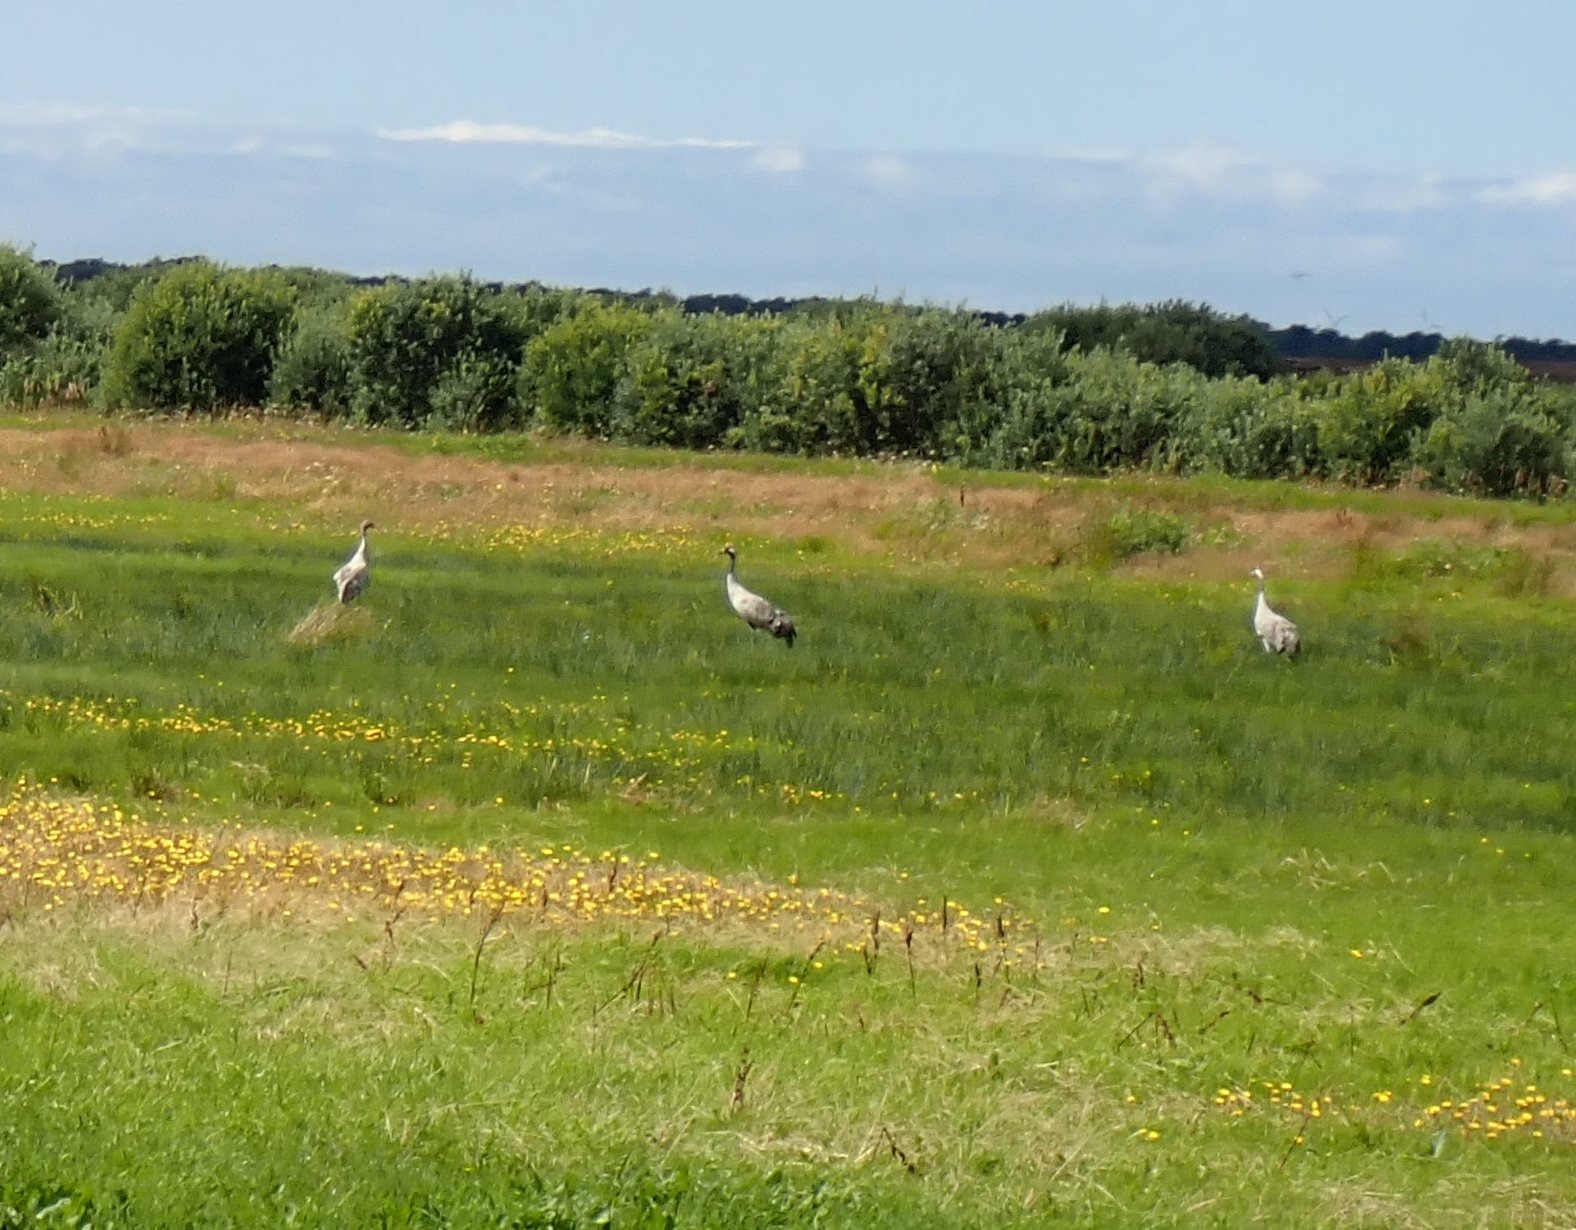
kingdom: Animalia
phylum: Chordata
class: Aves
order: Gruiformes
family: Gruidae
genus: Grus
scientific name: Grus grus
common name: Trane
